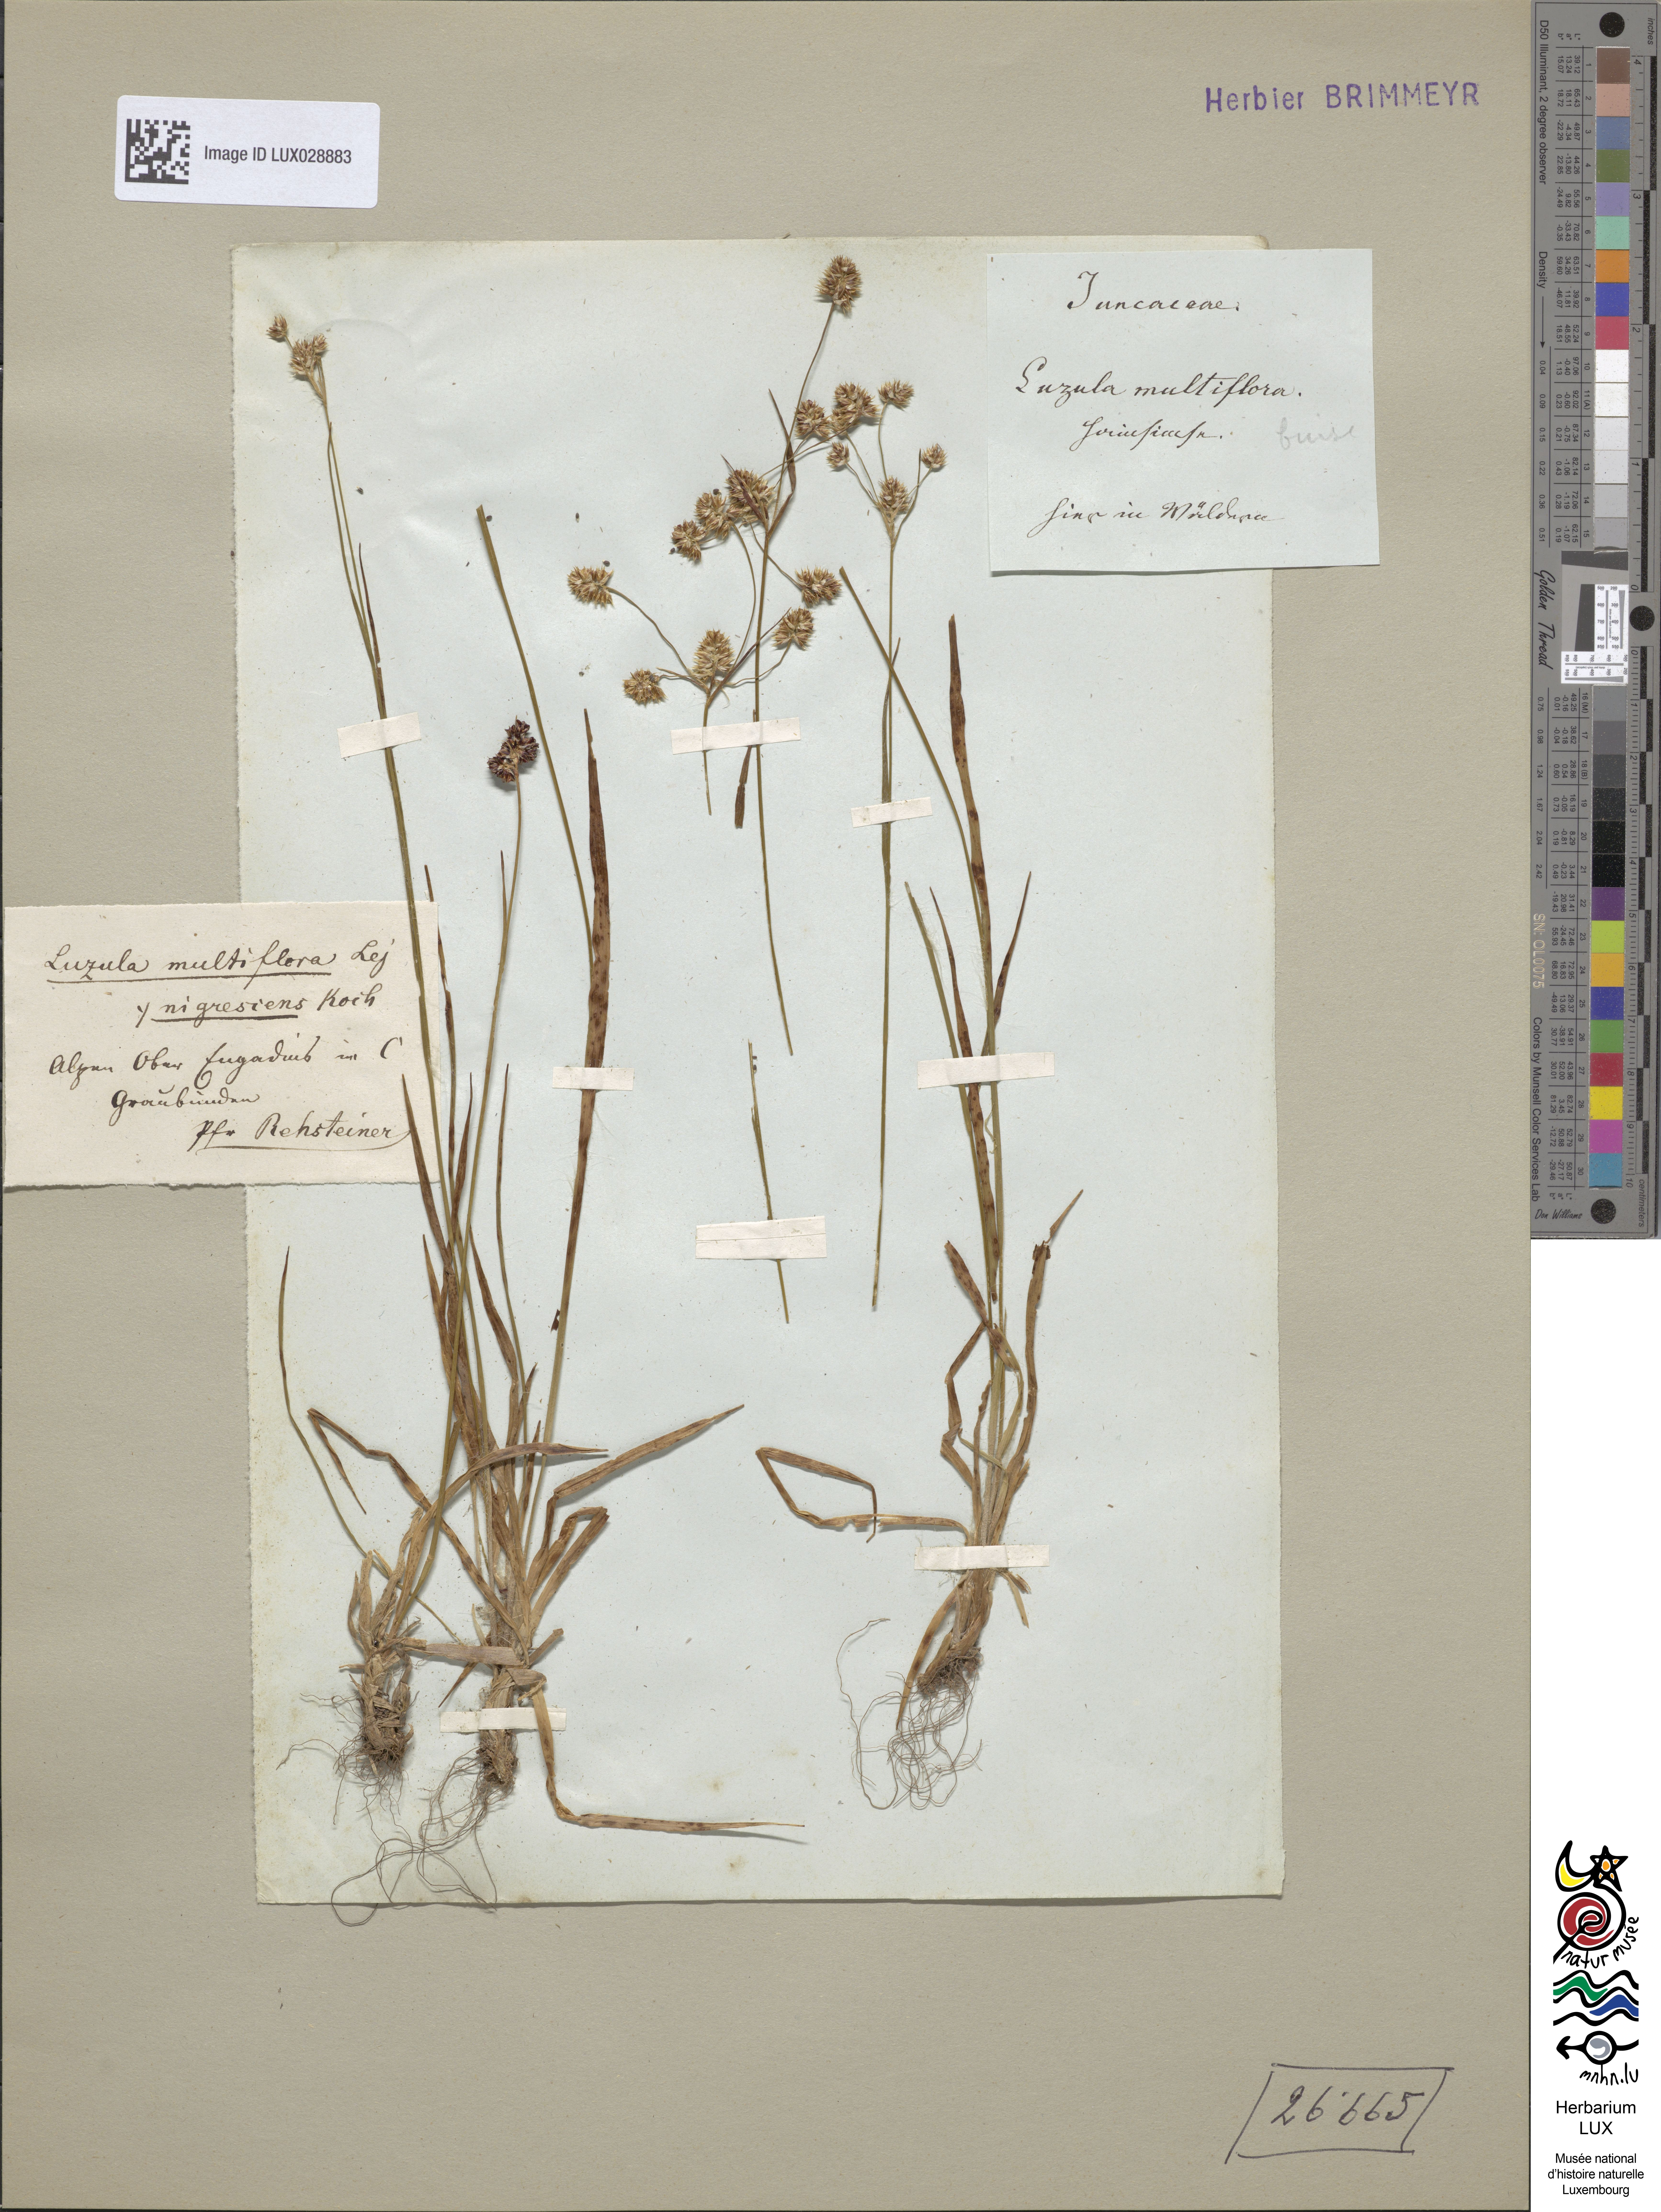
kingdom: Plantae
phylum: Tracheophyta
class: Liliopsida
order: Poales
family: Juncaceae
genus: Luzula
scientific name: Luzula multiflora
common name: Heath wood-rush
